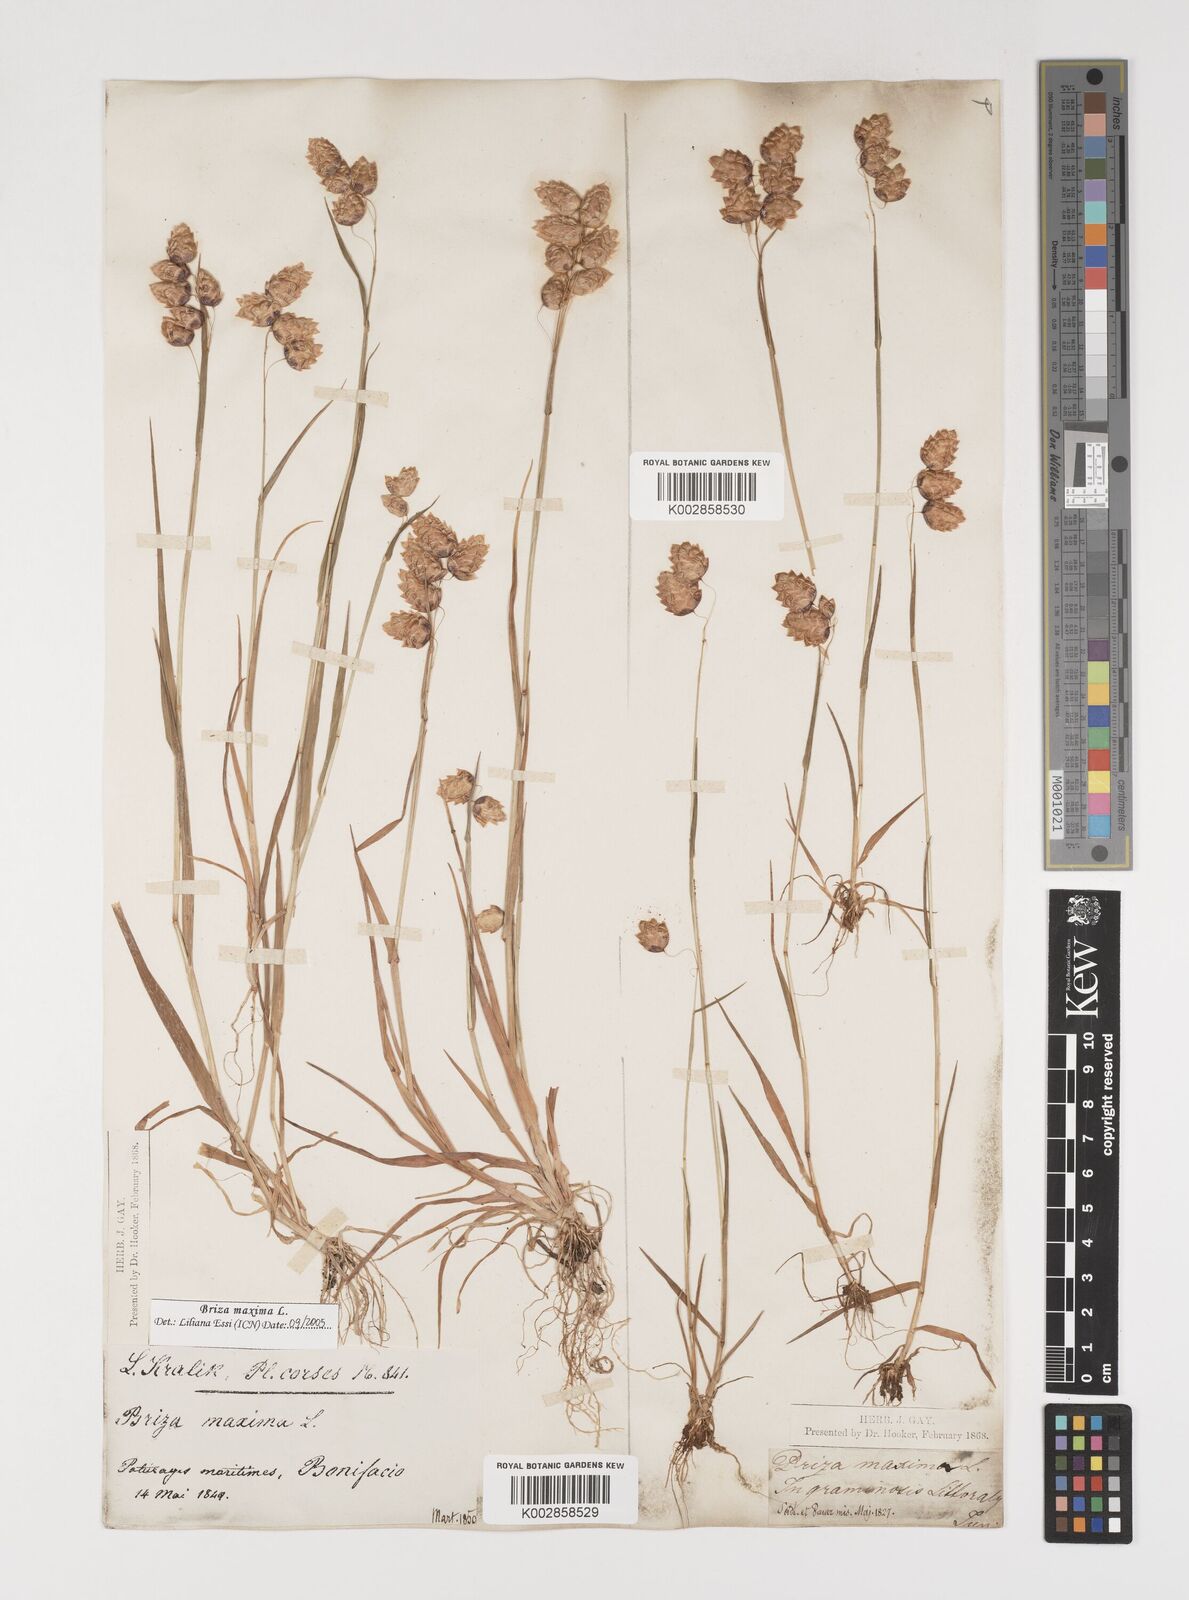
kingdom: Plantae
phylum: Tracheophyta
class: Liliopsida
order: Poales
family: Poaceae
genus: Briza
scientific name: Briza maxima
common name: Big quakinggrass
